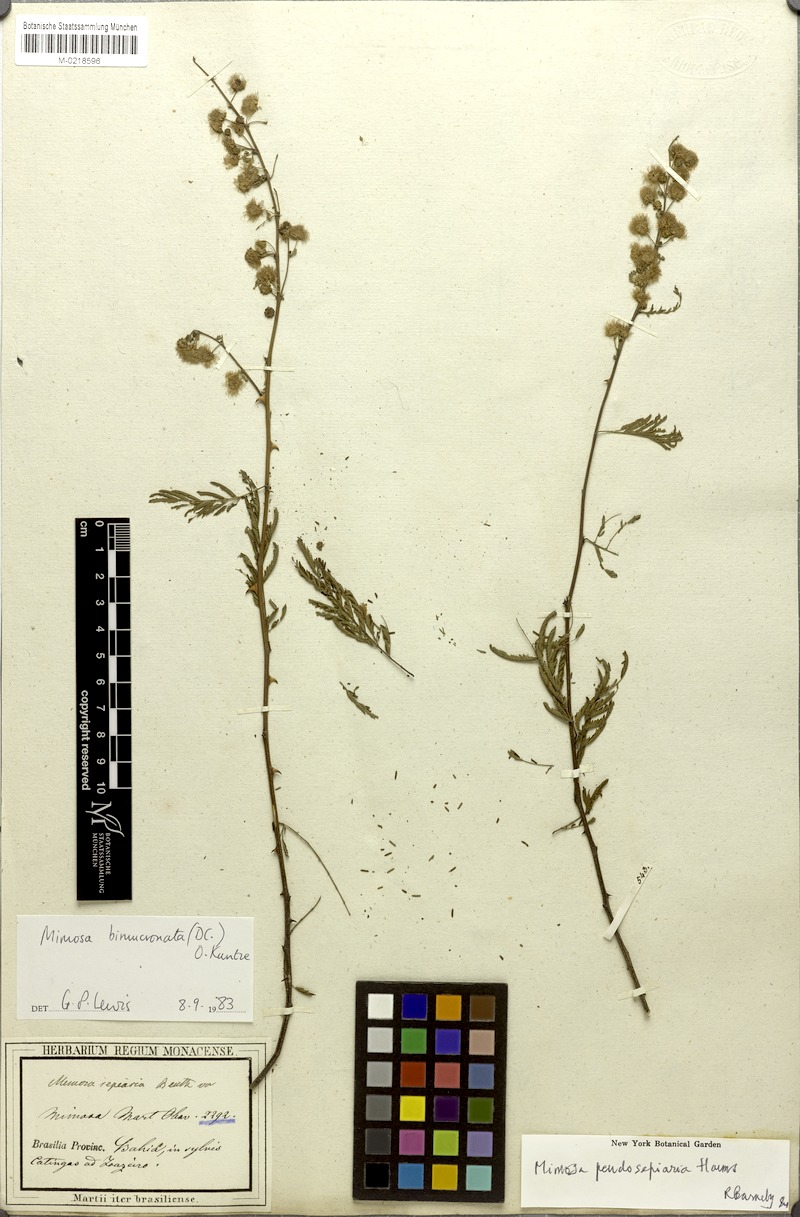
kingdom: Plantae
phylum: Tracheophyta
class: Magnoliopsida
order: Fabales
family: Fabaceae
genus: Mimosa
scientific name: Mimosa bimucronata
